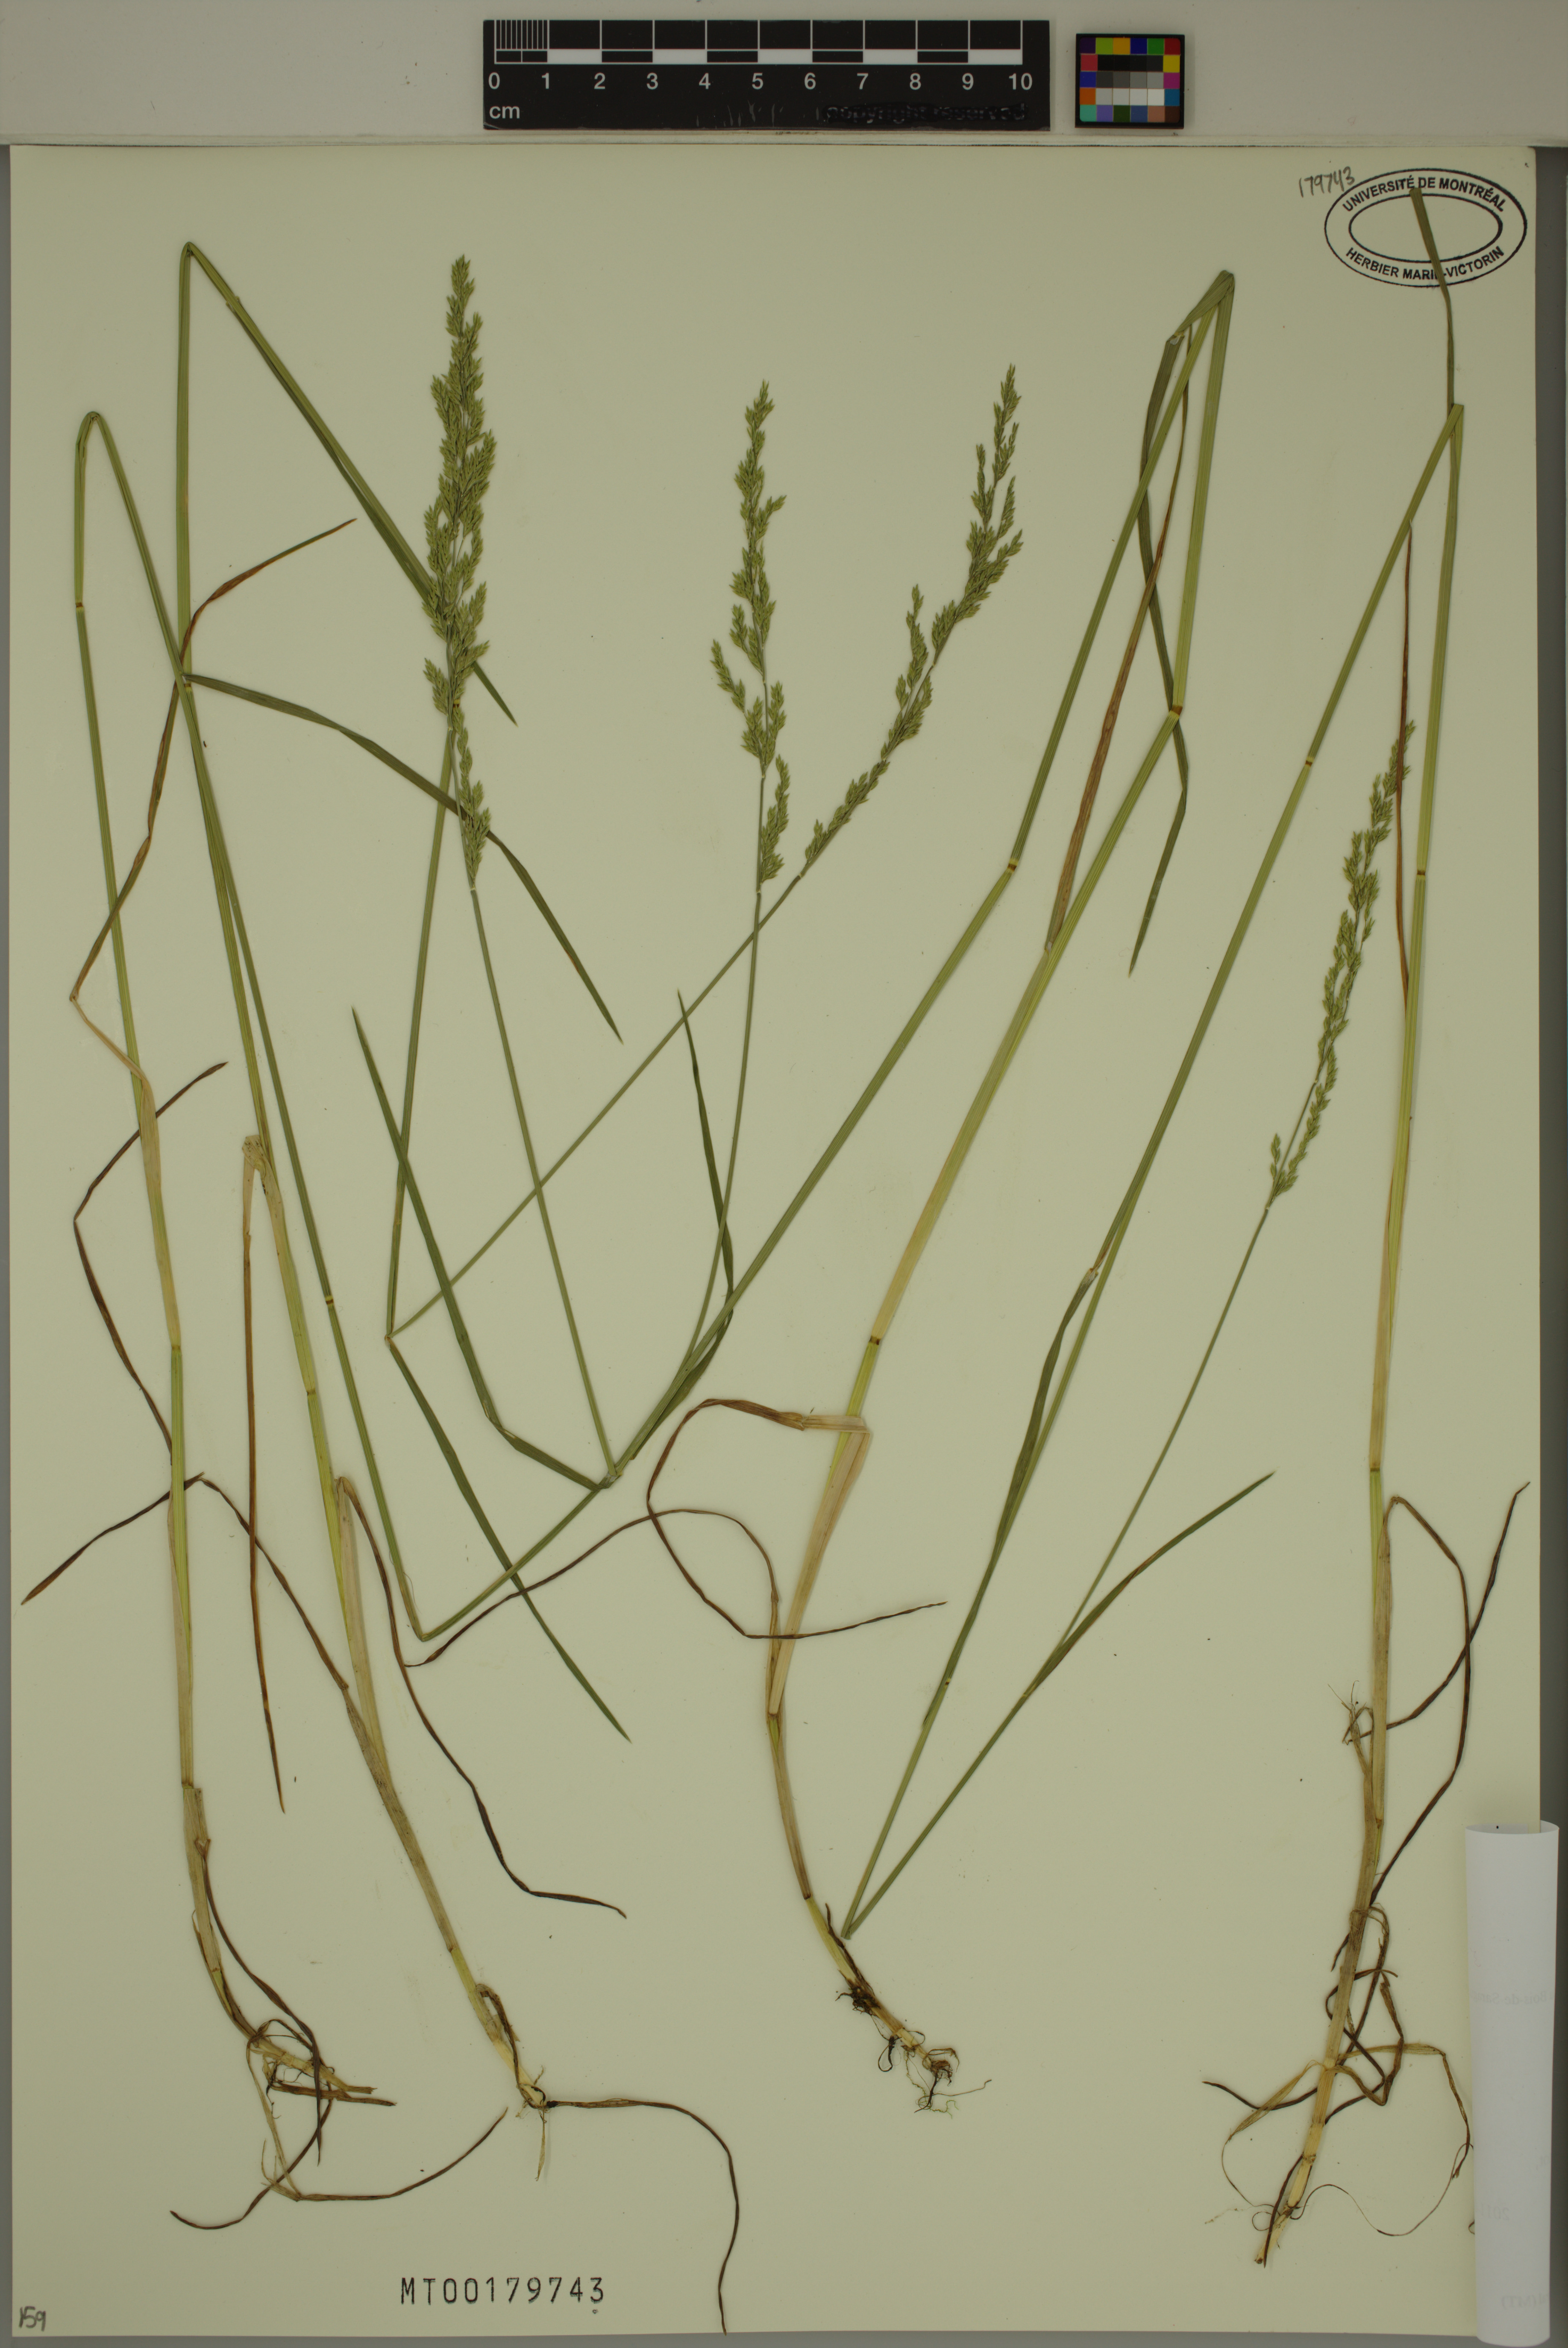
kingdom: Plantae
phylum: Tracheophyta
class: Liliopsida
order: Poales
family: Poaceae
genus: Poa
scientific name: Poa compressa
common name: Canada bluegrass
